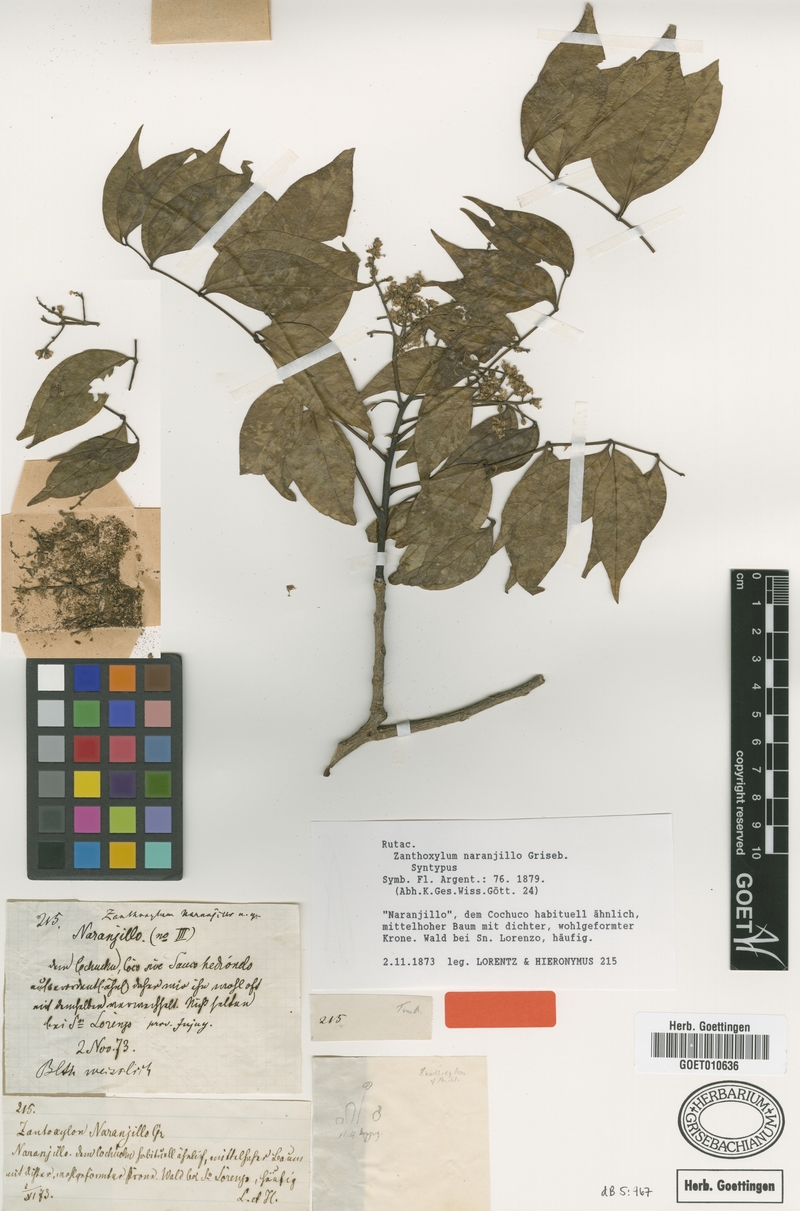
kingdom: Plantae
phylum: Tracheophyta
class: Magnoliopsida
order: Sapindales
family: Rutaceae
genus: Zanthoxylum
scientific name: Zanthoxylum petiolare
